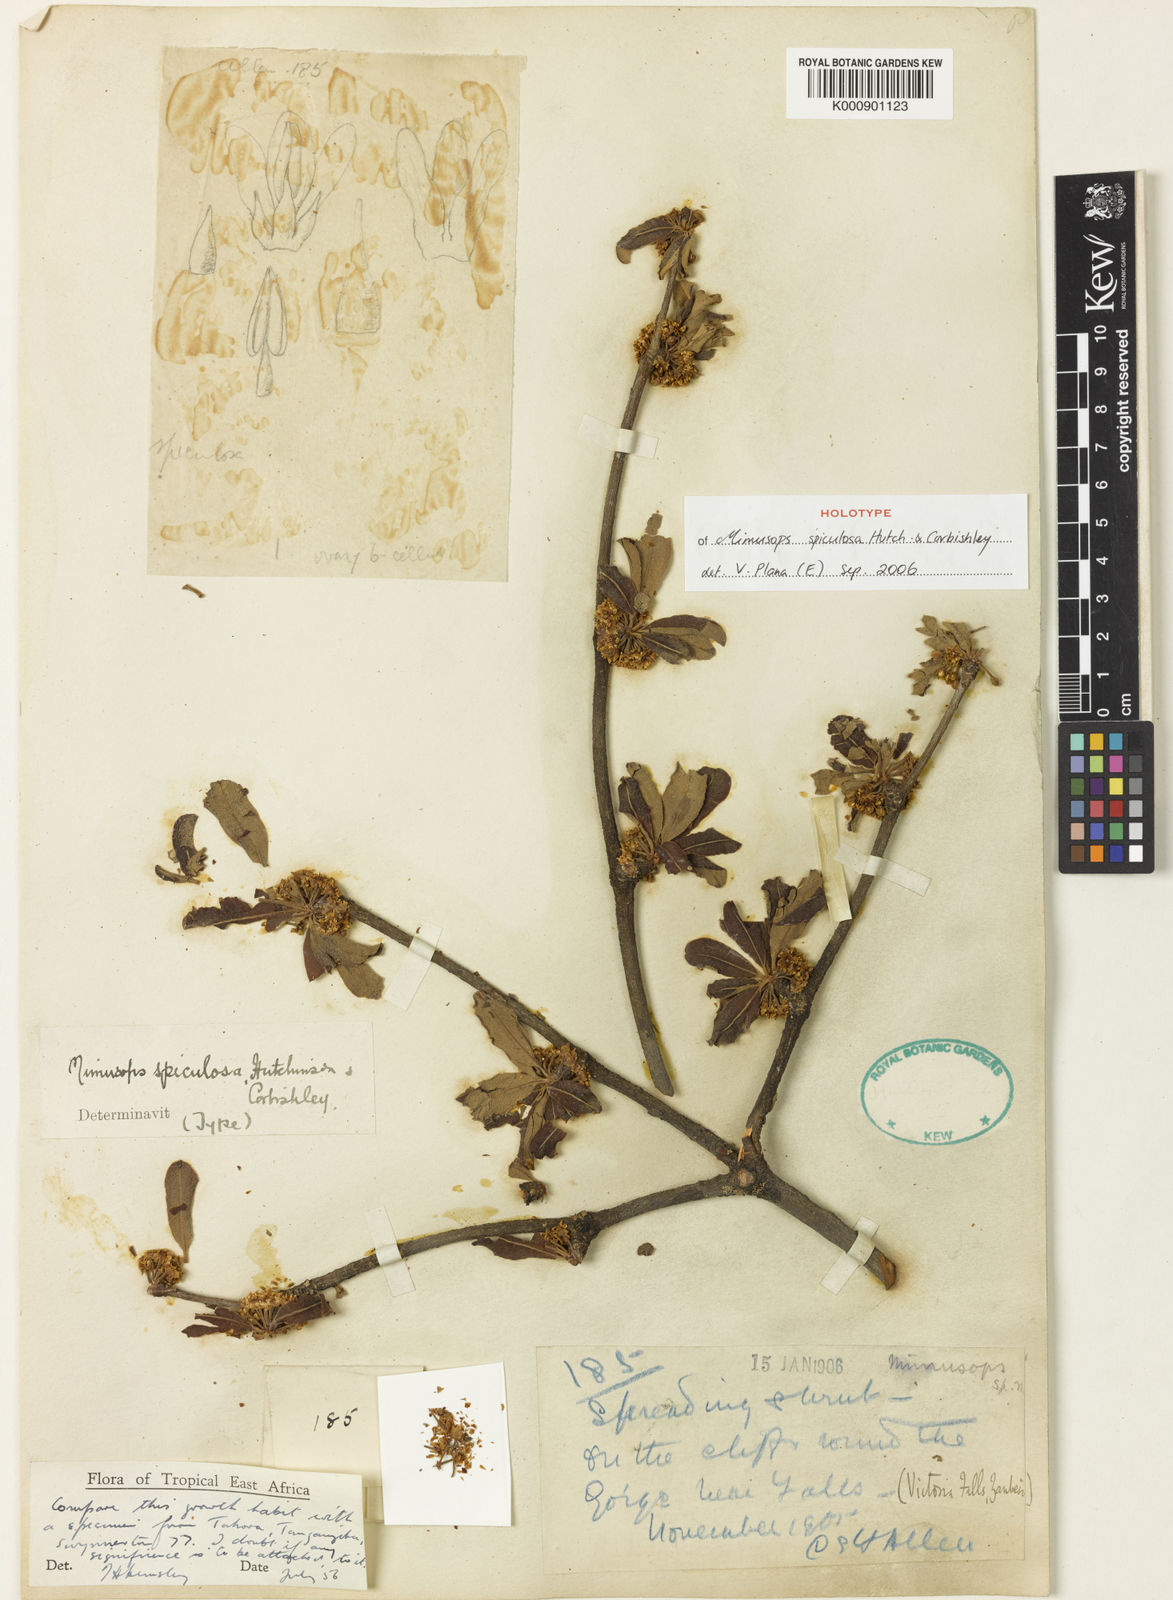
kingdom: Plantae
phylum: Tracheophyta
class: Magnoliopsida
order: Ericales
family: Sapotaceae
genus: Manilkara
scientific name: Manilkara mochisia
